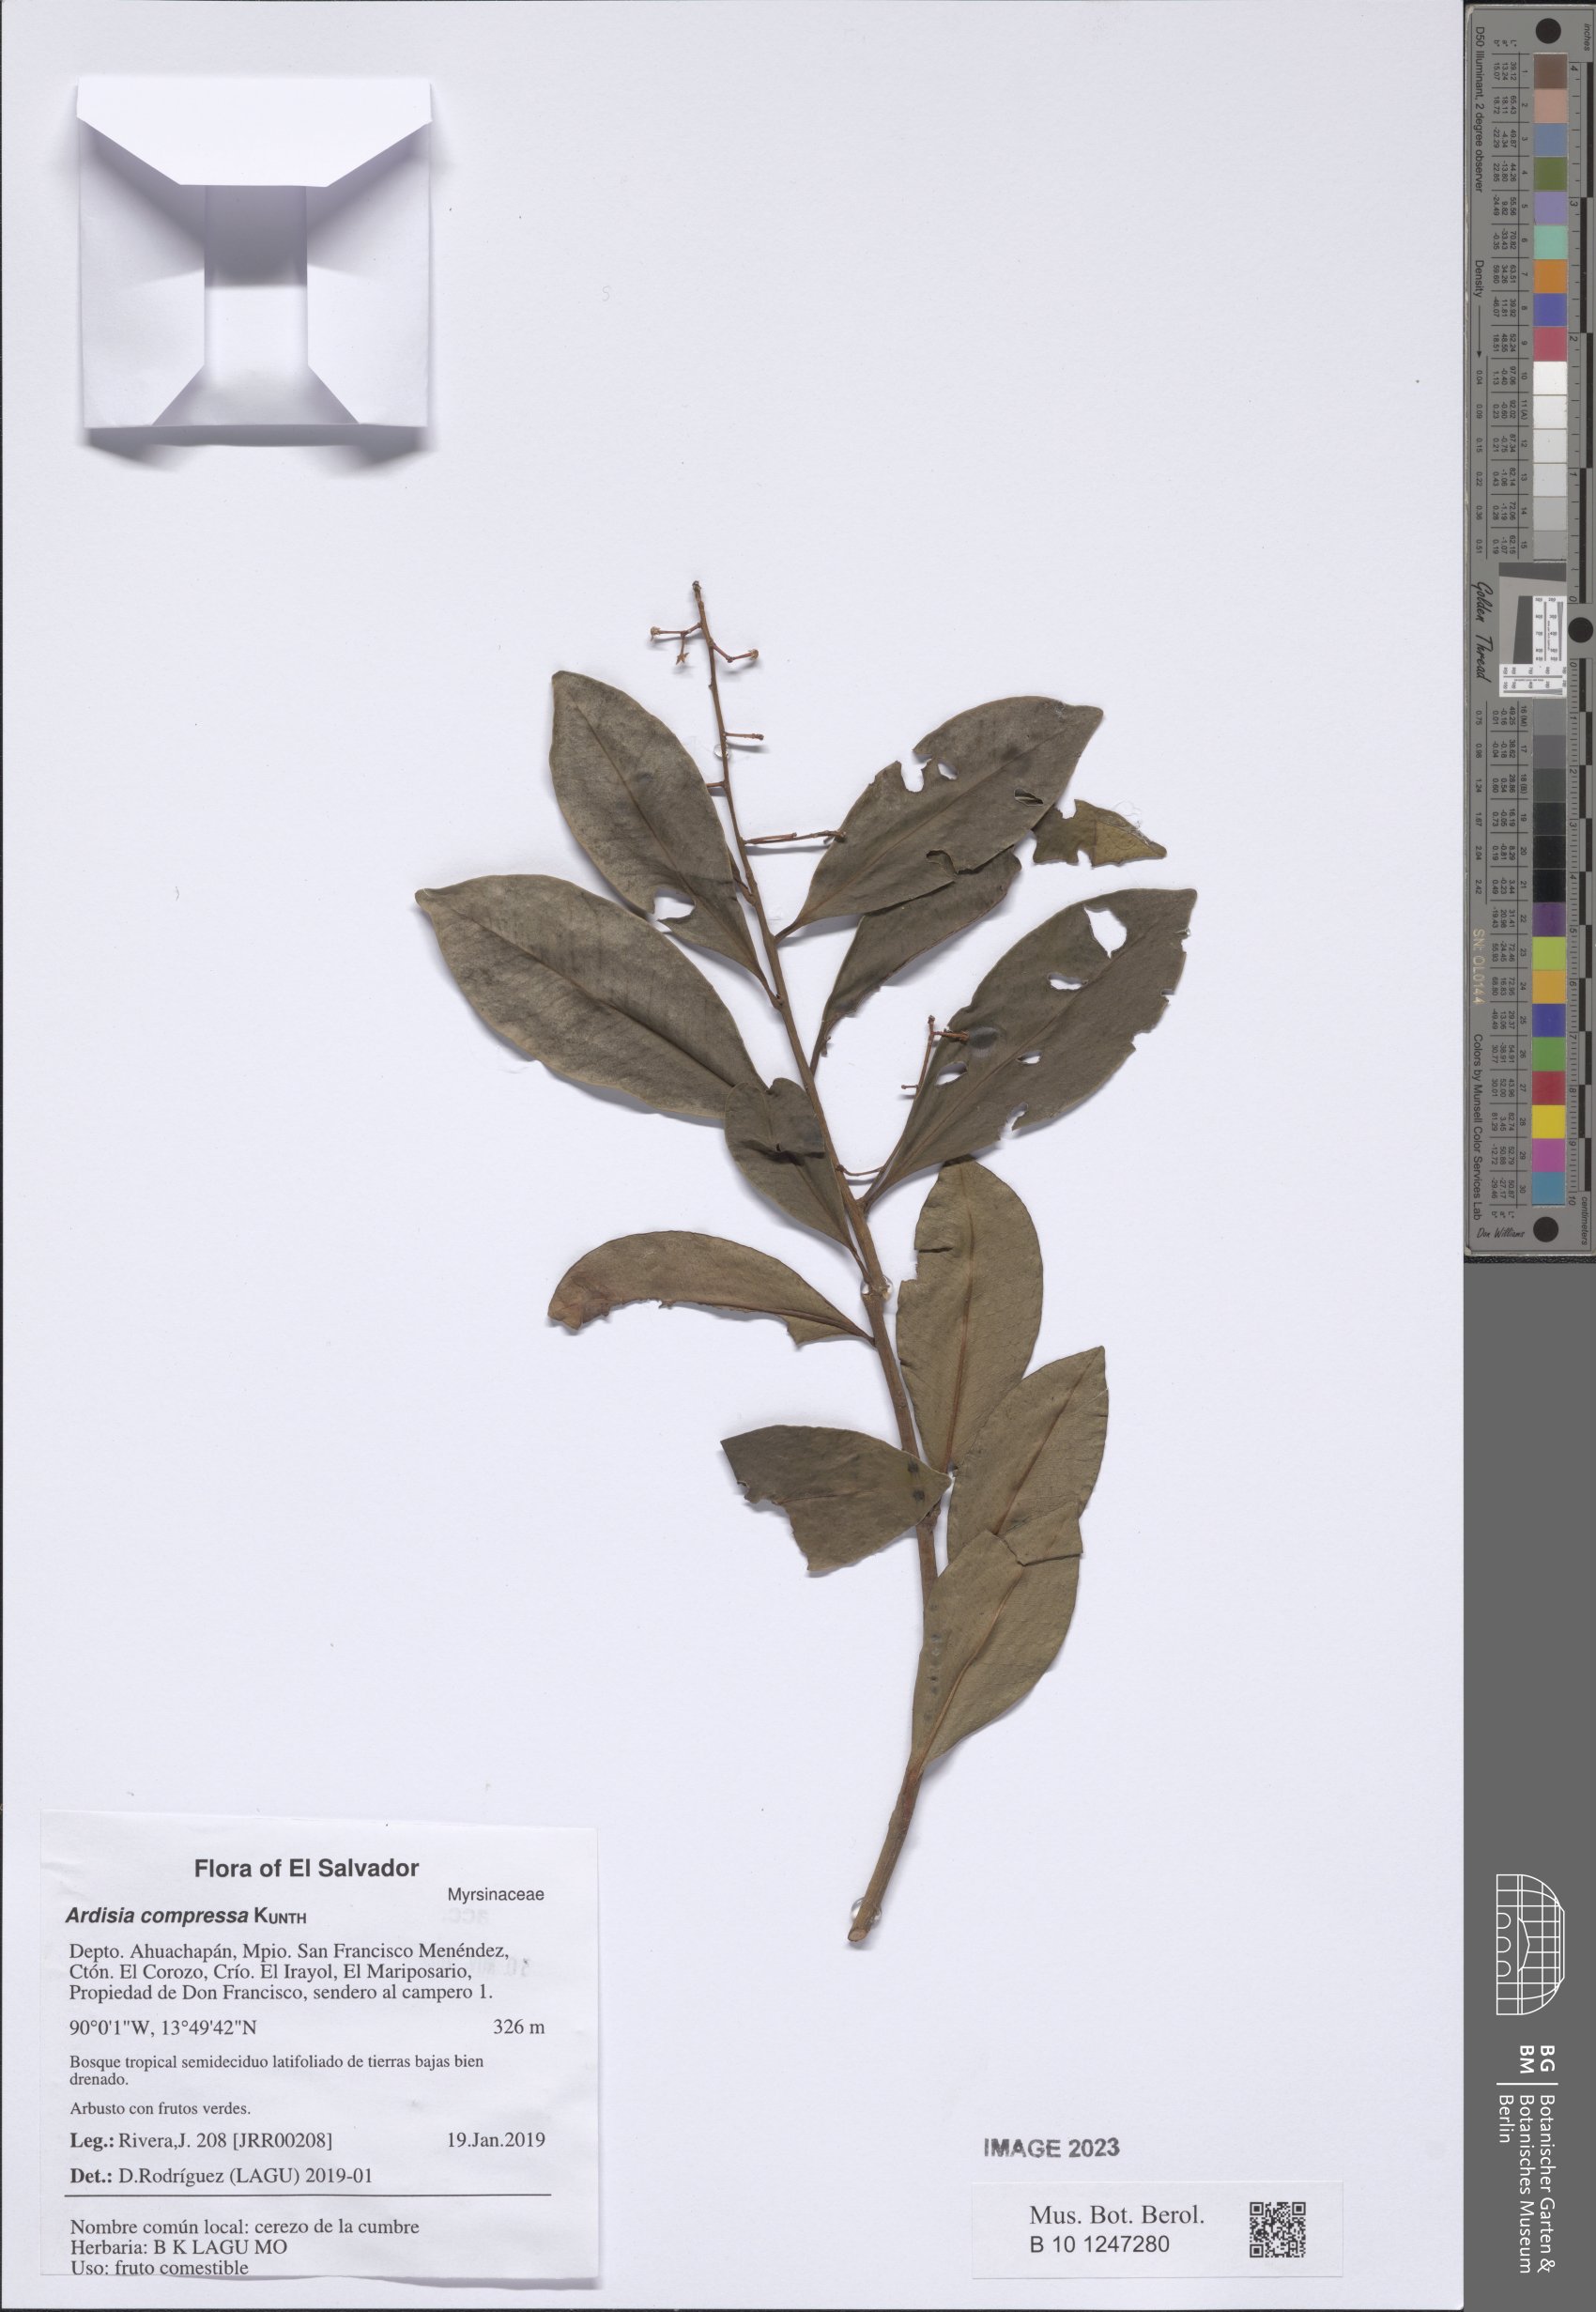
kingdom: Plantae
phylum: Tracheophyta
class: Magnoliopsida
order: Ericales
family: Primulaceae
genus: Ardisia
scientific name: Ardisia compressa
